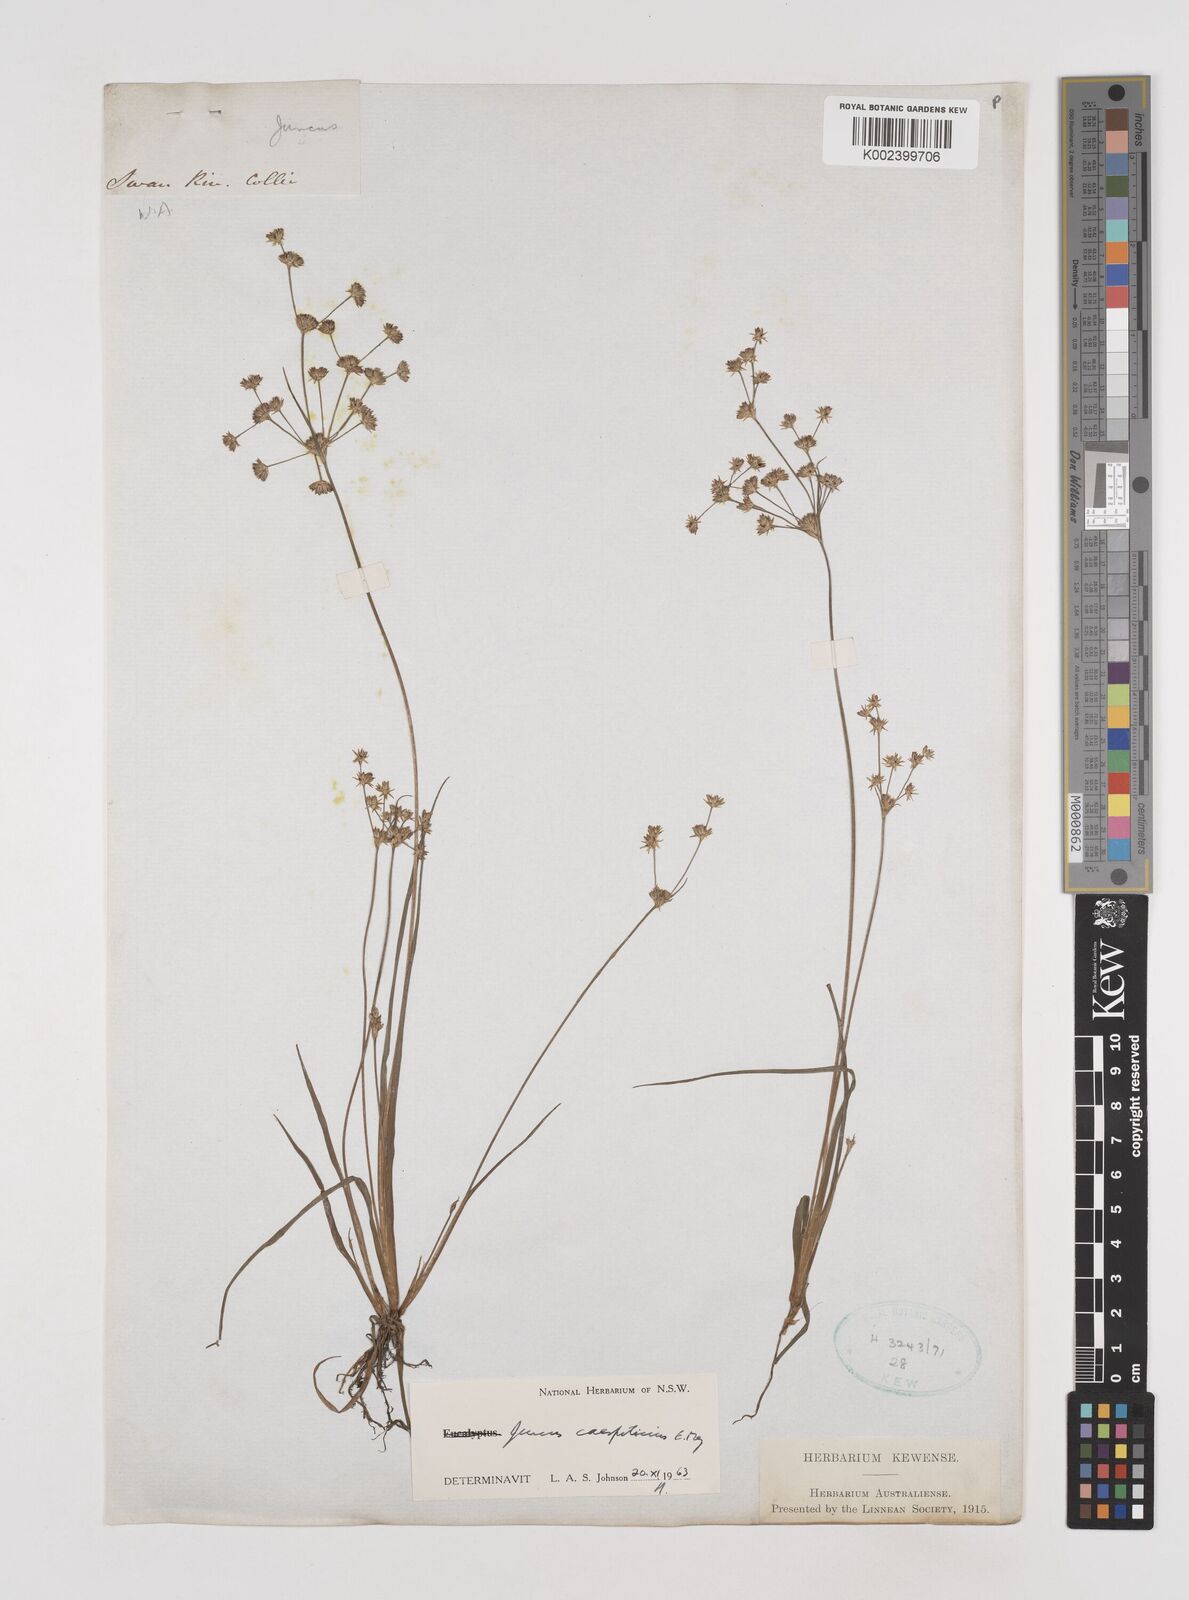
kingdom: Plantae
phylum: Tracheophyta
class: Liliopsida
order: Poales
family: Juncaceae
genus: Juncus
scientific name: Juncus caespiticius
